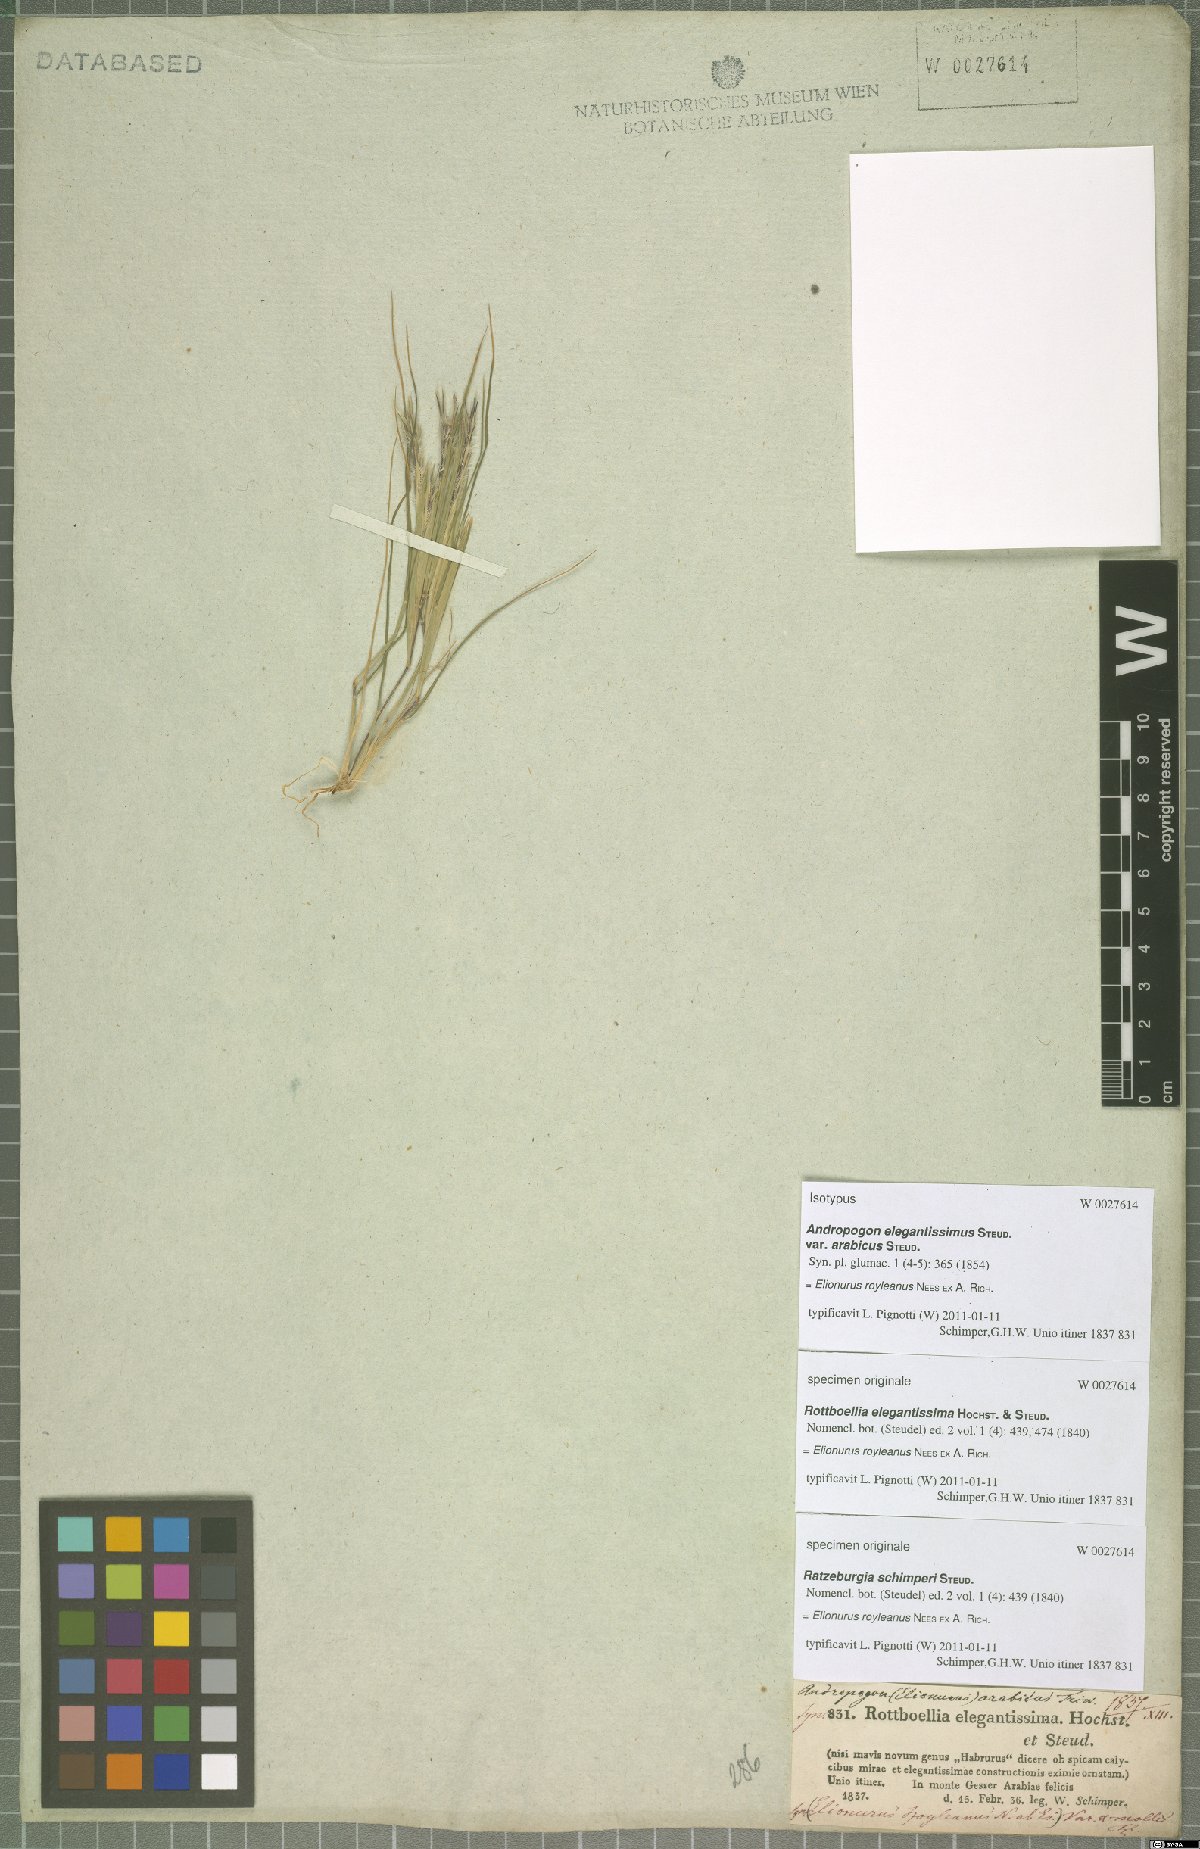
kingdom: Plantae
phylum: Tracheophyta
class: Liliopsida
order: Poales
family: Poaceae
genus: Elionurus
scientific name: Elionurus royleanus
